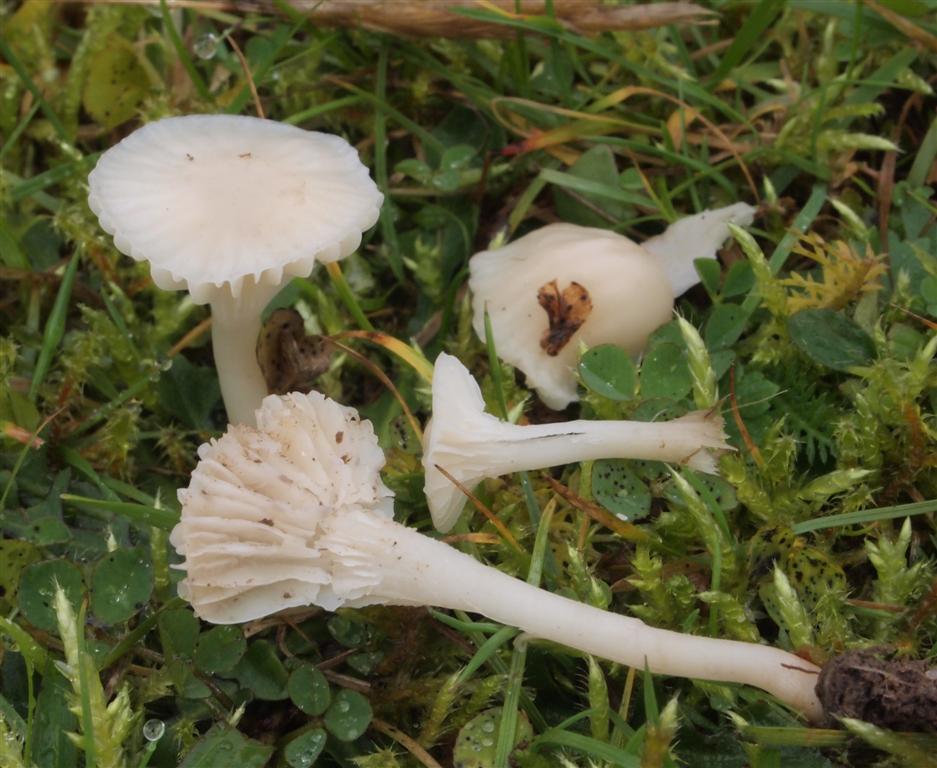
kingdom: Fungi
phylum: Basidiomycota
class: Agaricomycetes
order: Agaricales
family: Hygrophoraceae
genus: Cuphophyllus
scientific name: Cuphophyllus virgineus
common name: snehvid vokshat
